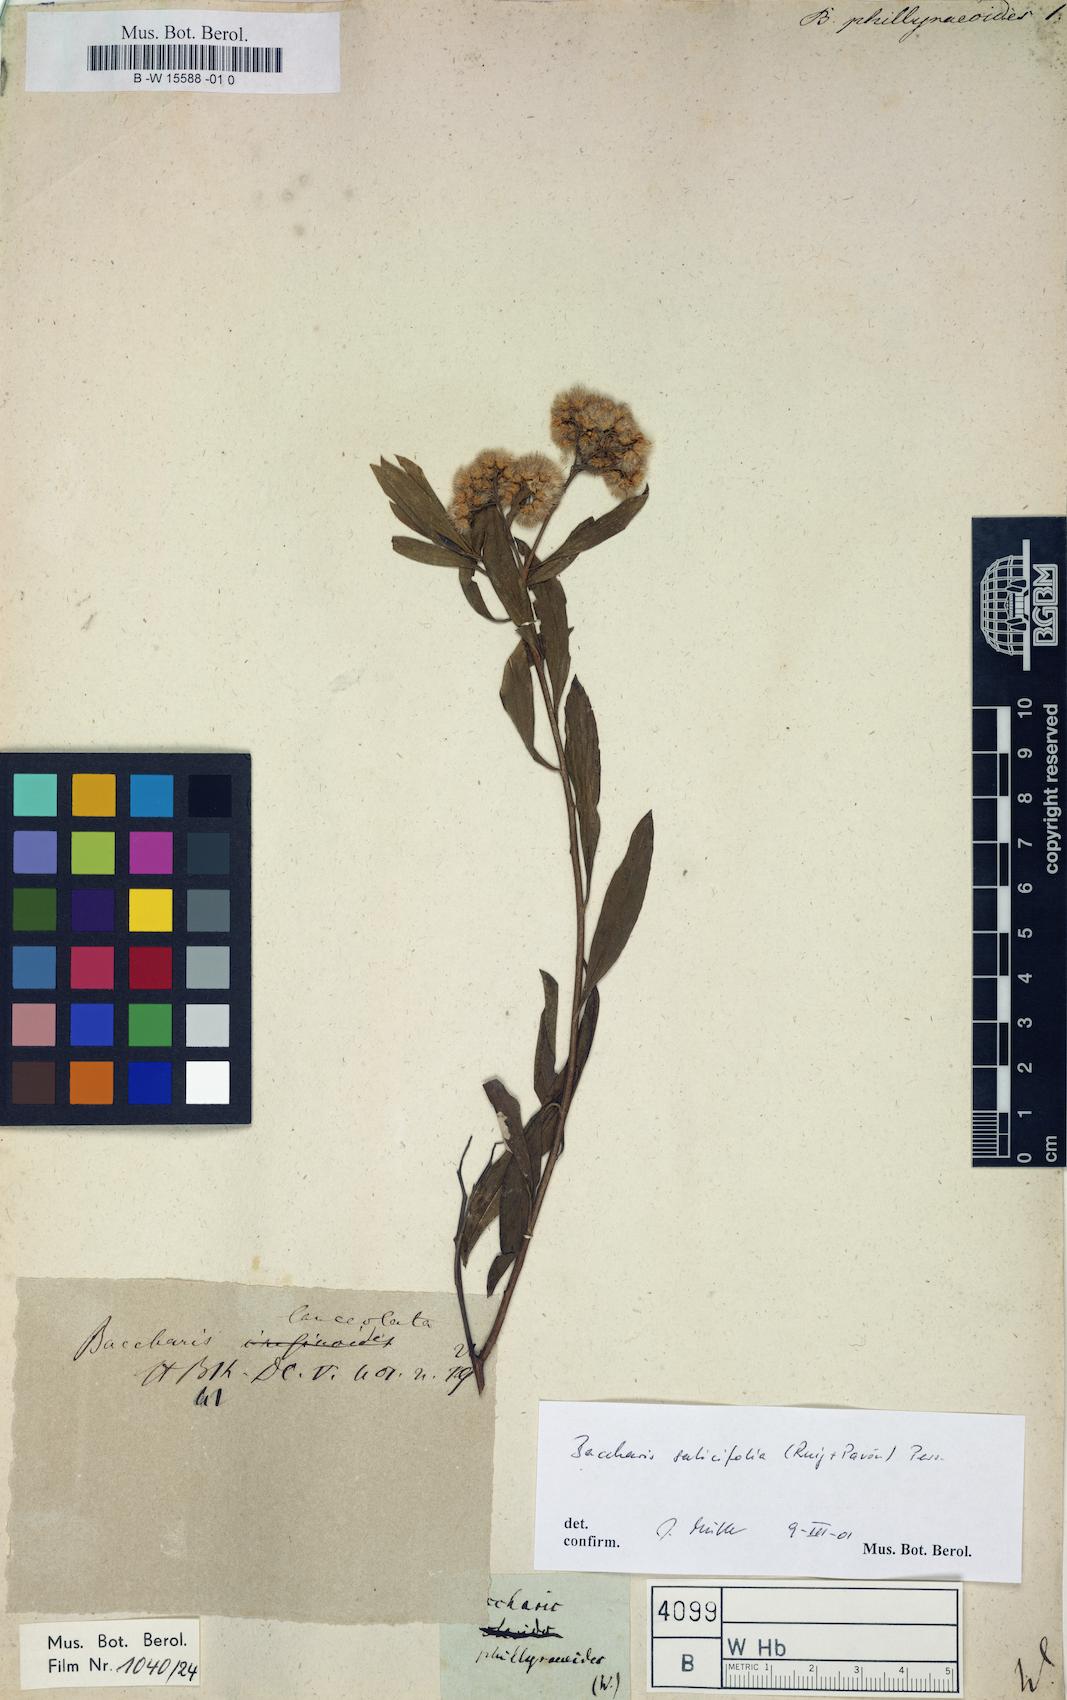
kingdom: Plantae
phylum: Tracheophyta
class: Magnoliopsida
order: Asterales
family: Asteraceae
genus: Baccharis
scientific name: Baccharis
